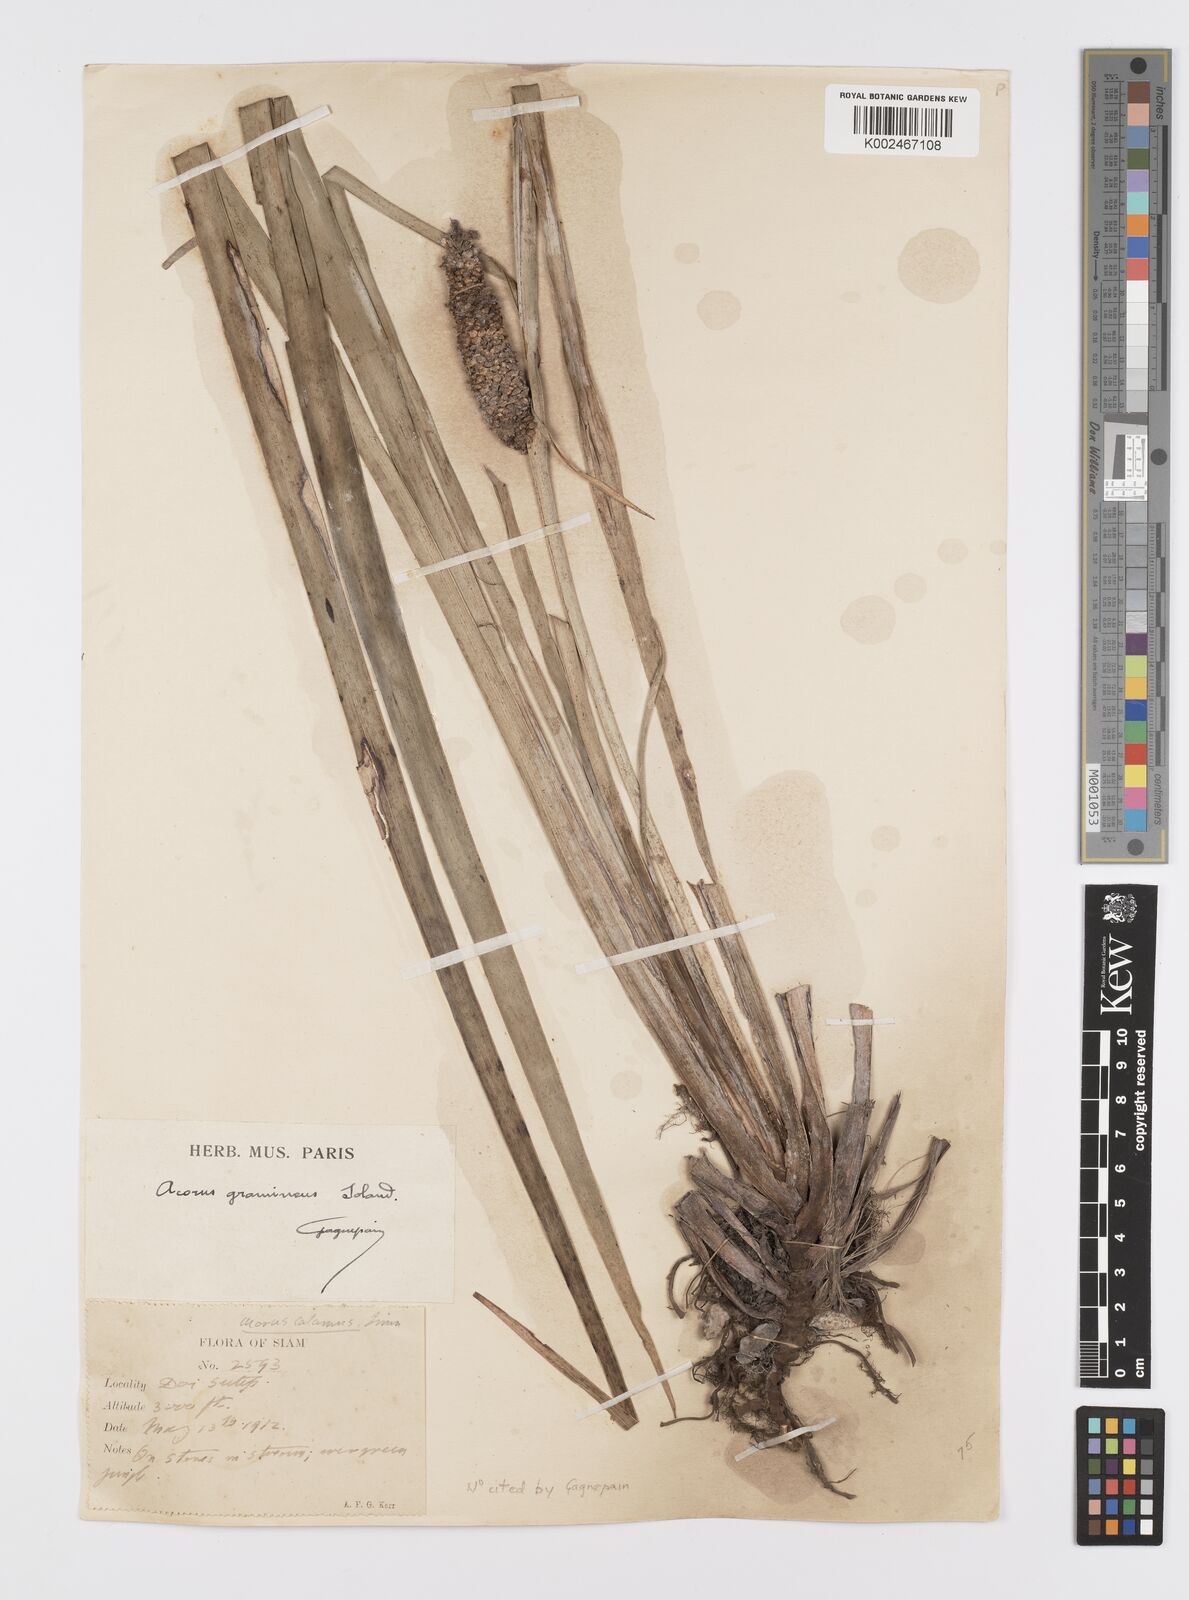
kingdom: Plantae
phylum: Tracheophyta
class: Liliopsida
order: Acorales
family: Acoraceae
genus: Acorus
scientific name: Acorus gramineus
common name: Slender sweet-flag
